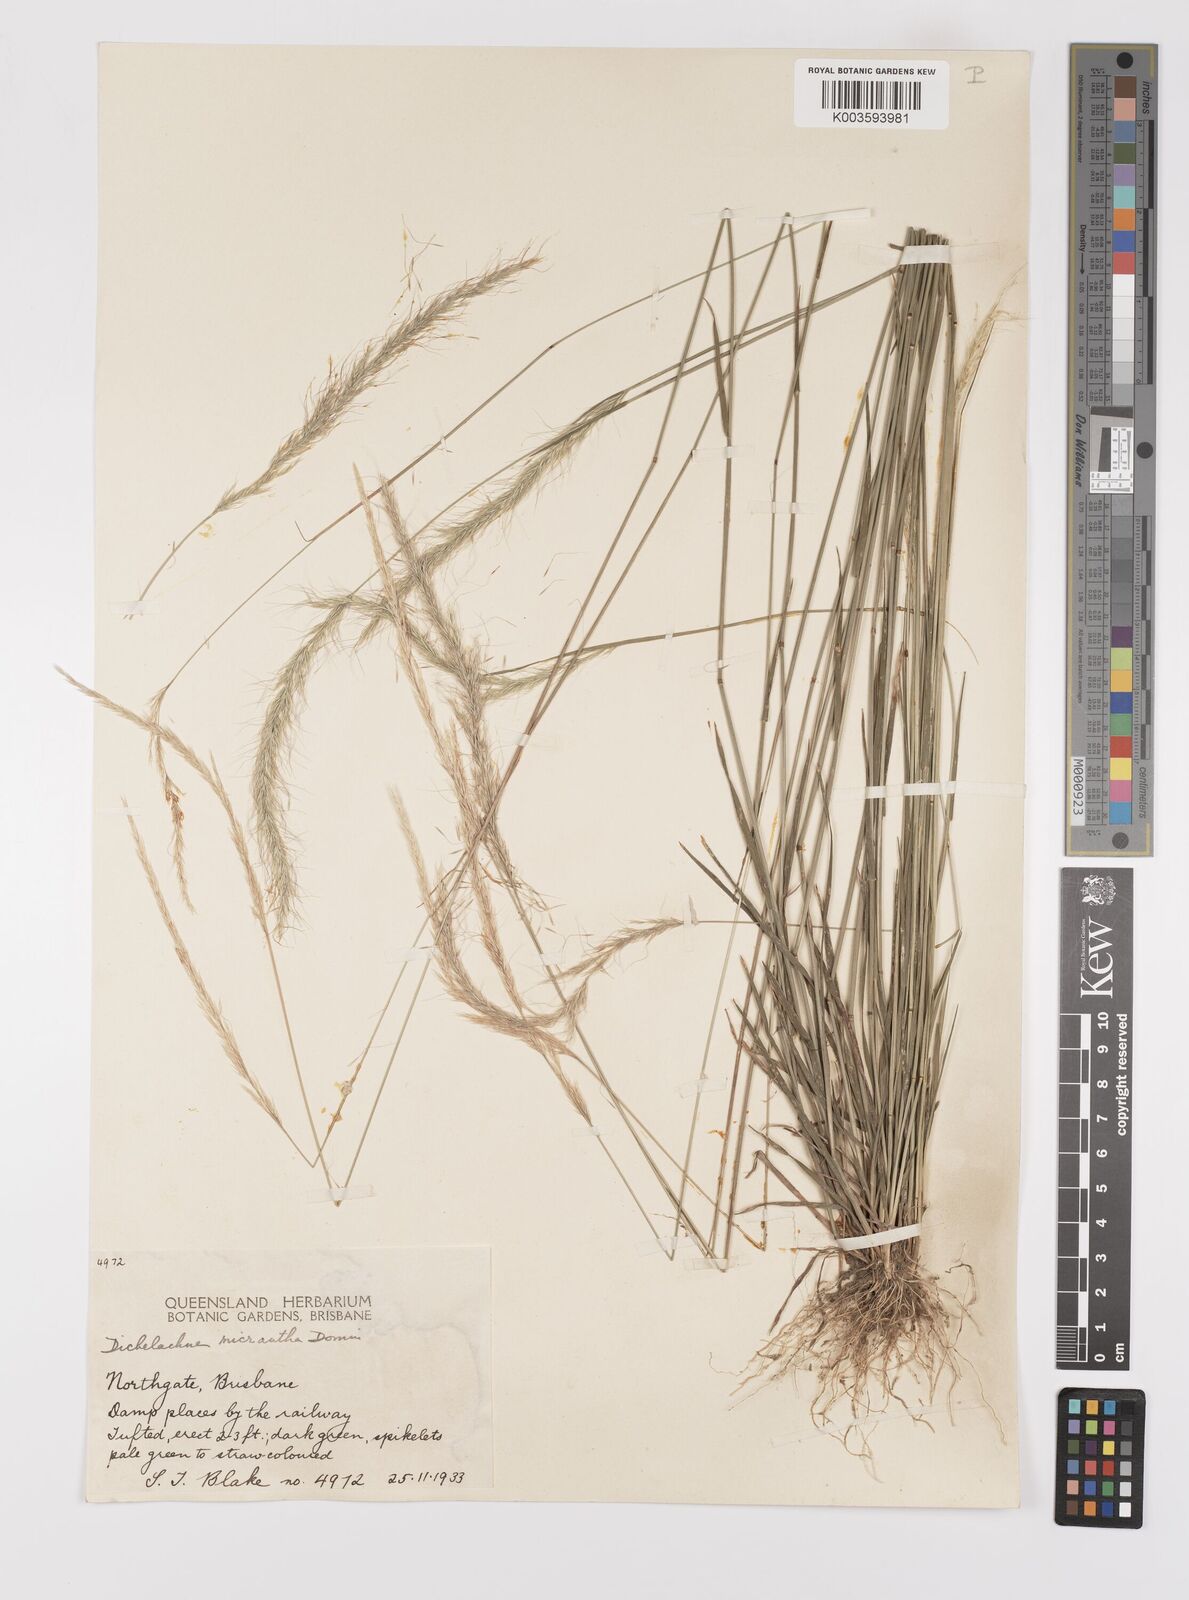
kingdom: Plantae
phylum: Tracheophyta
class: Liliopsida
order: Poales
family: Poaceae
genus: Dichelachne
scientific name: Dichelachne micrantha
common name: Plumegrass
